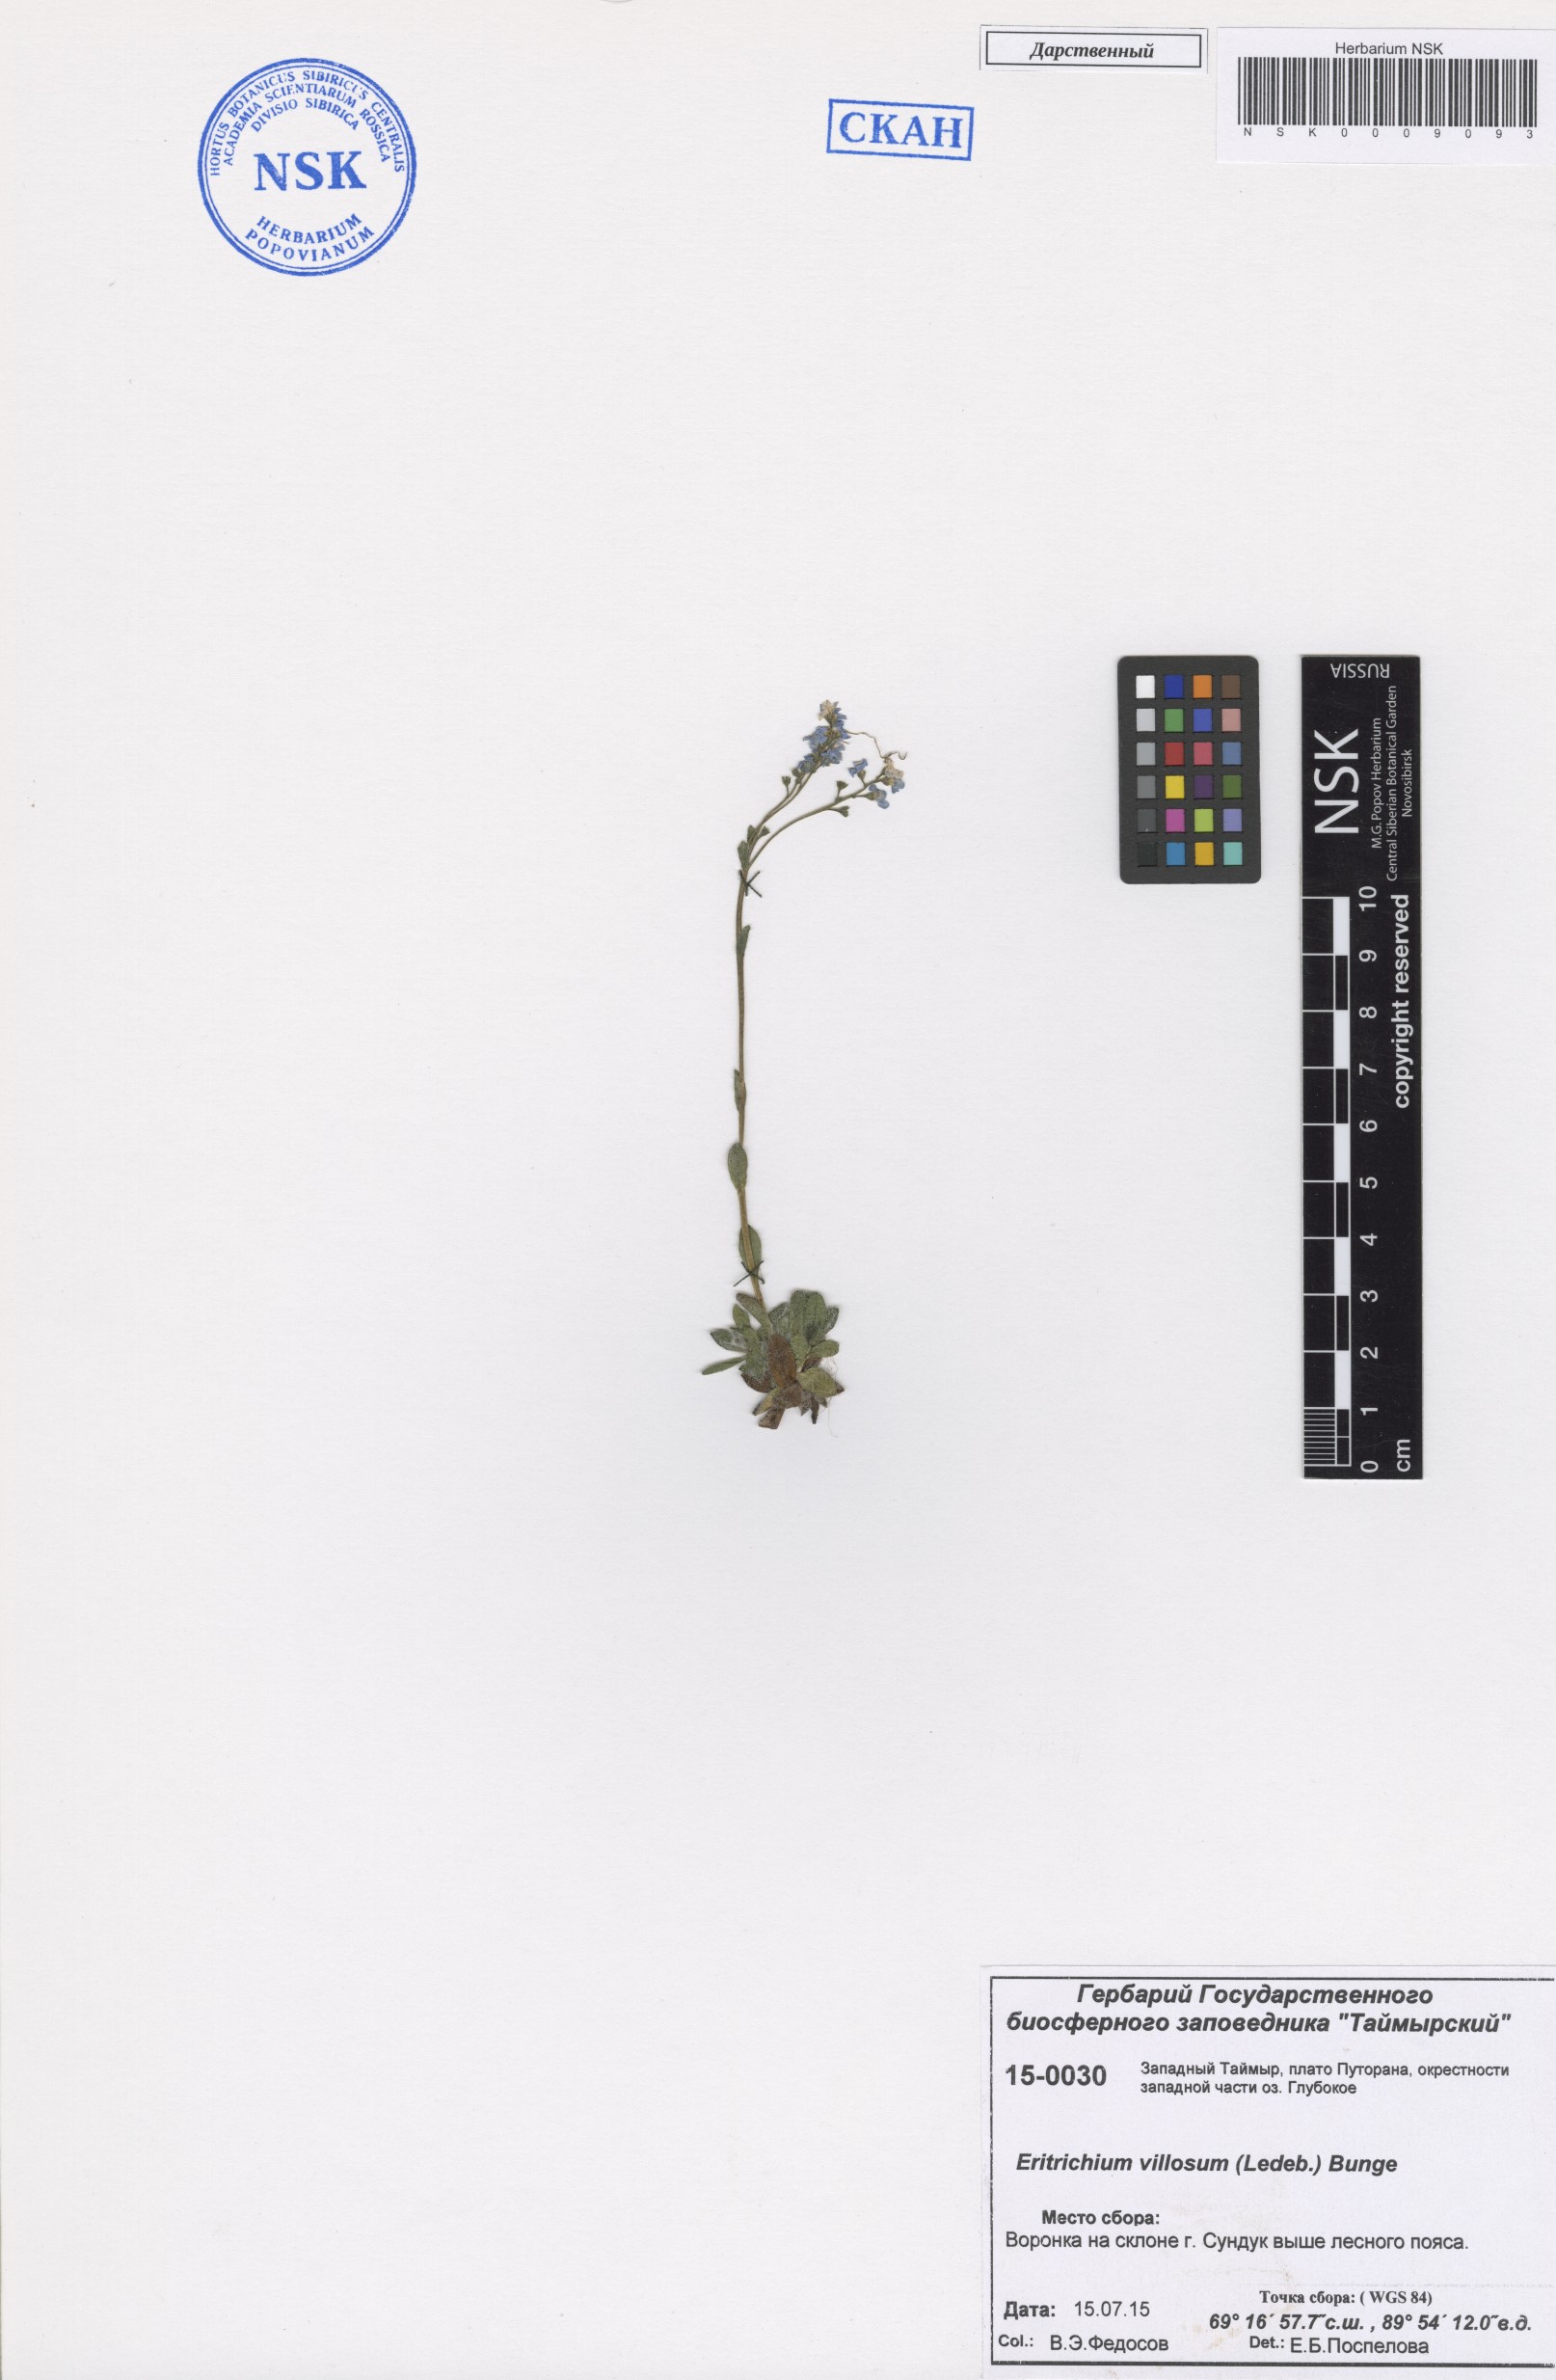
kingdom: Plantae
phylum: Tracheophyta
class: Magnoliopsida
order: Boraginales
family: Boraginaceae
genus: Eritrichium
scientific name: Eritrichium villosum
